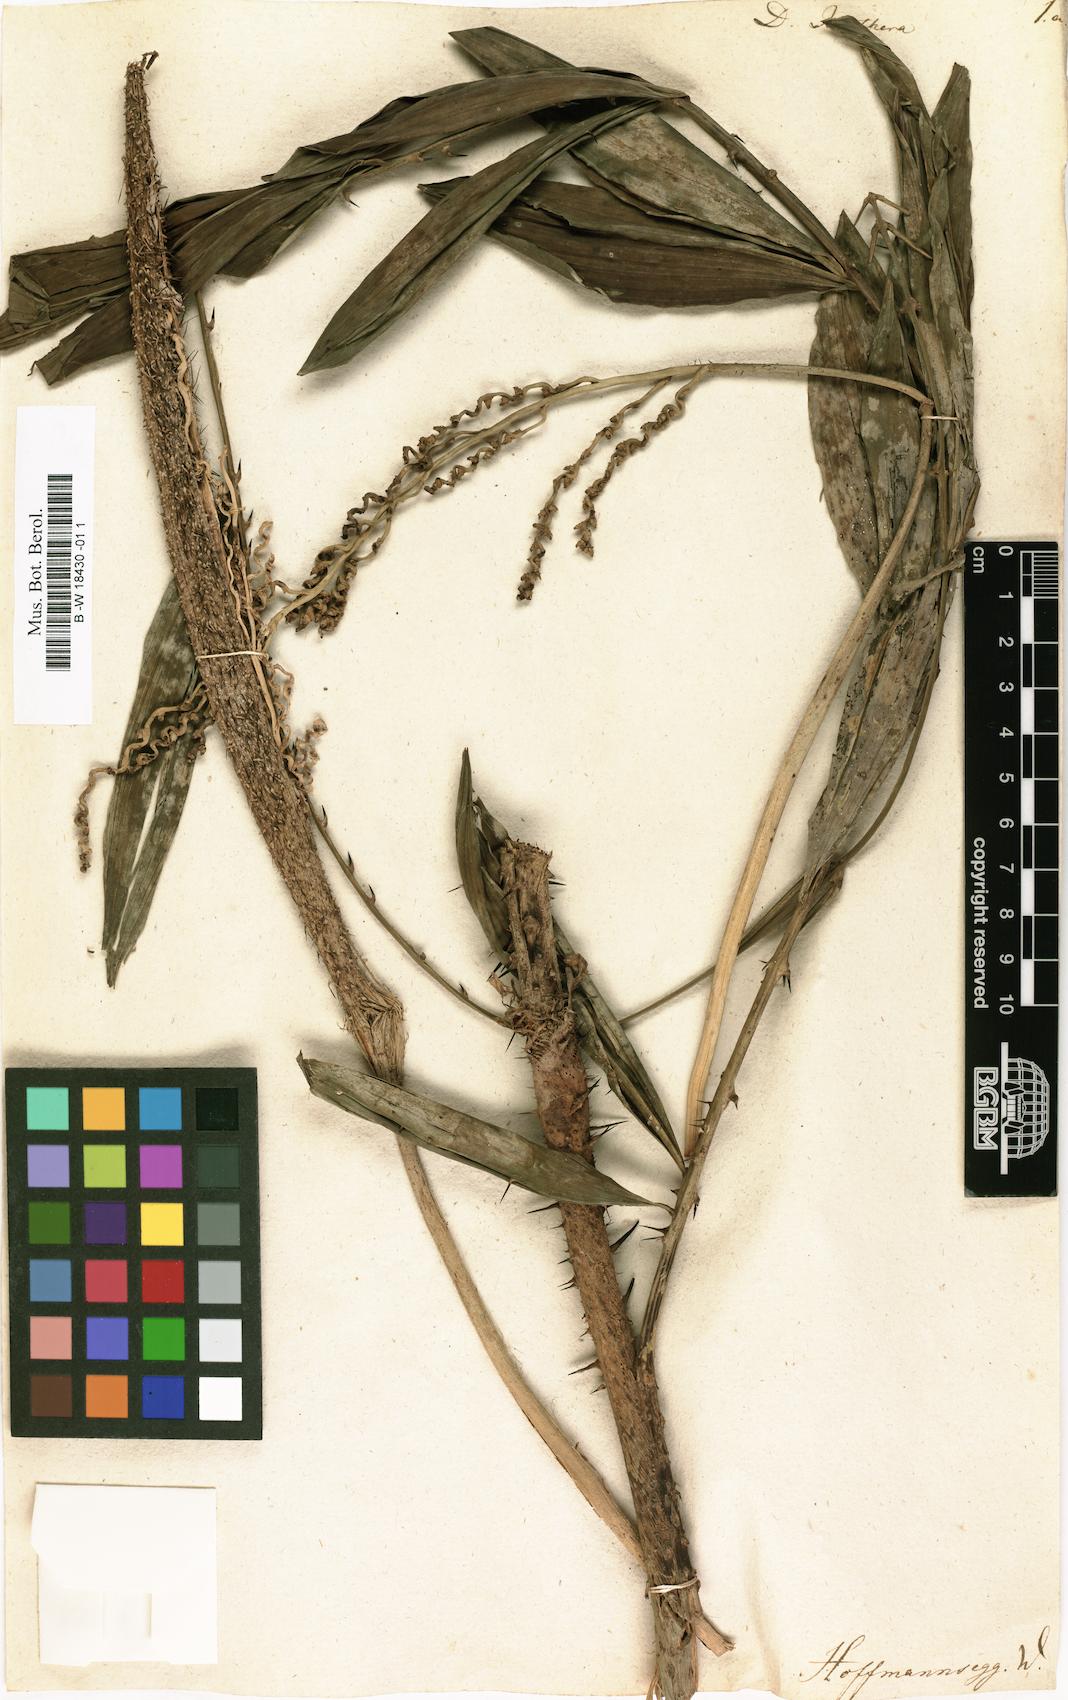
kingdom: Plantae
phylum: Tracheophyta
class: Liliopsida
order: Zingiberales
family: Marantaceae
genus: Donax
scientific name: Donax
